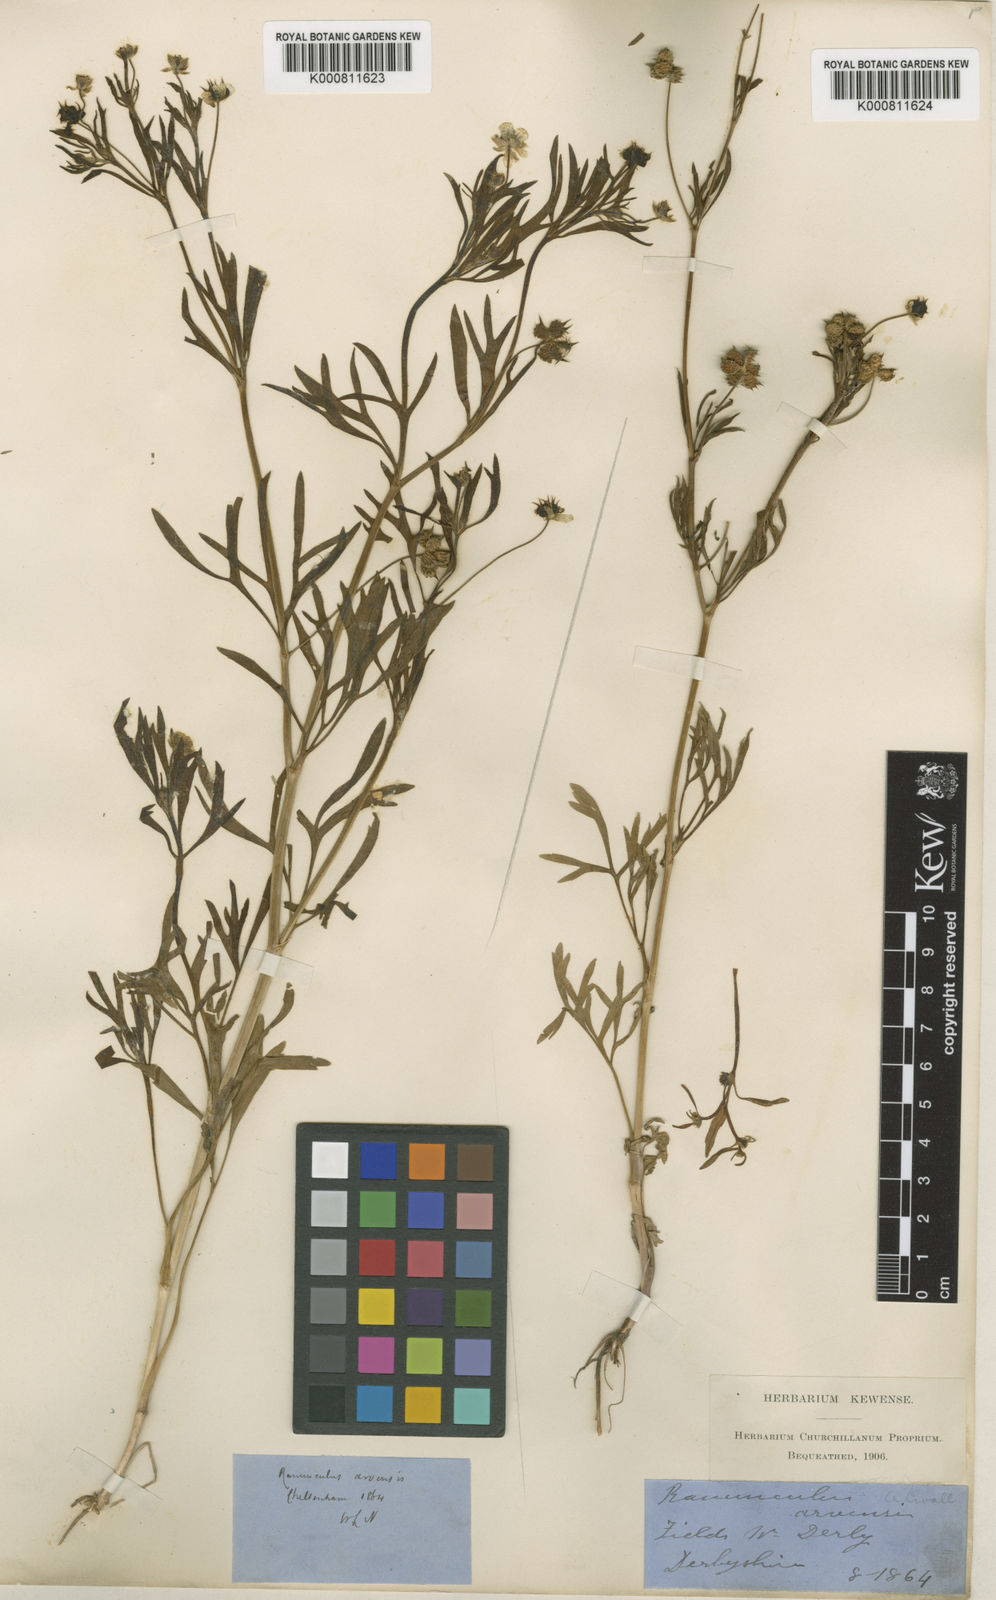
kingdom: Plantae
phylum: Tracheophyta
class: Magnoliopsida
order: Ranunculales
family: Ranunculaceae
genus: Ranunculus
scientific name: Ranunculus arvensis
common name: Corn buttercup
